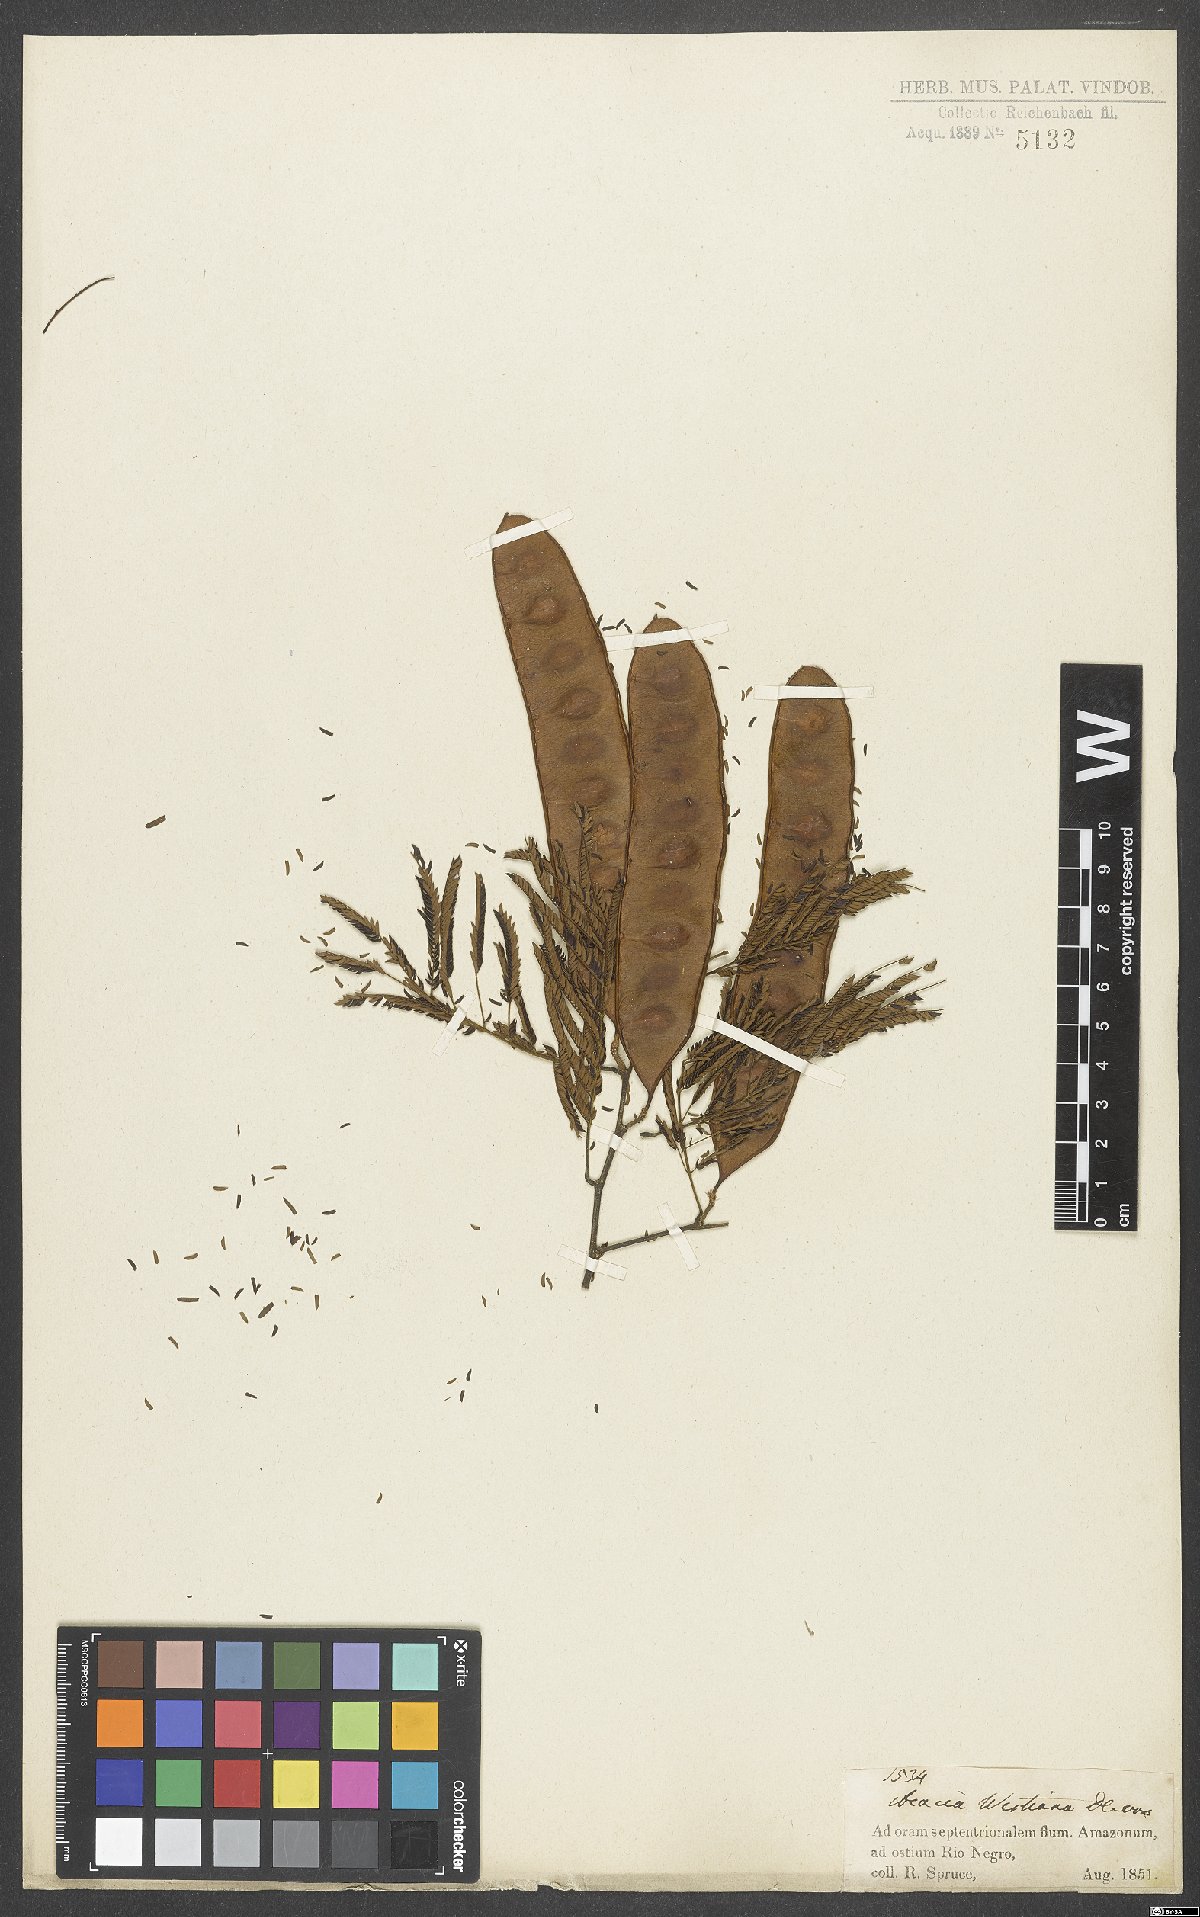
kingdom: Plantae
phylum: Tracheophyta
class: Magnoliopsida
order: Fabales
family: Fabaceae
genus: Senegalia
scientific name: Senegalia riparia
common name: Catch-and-keep
